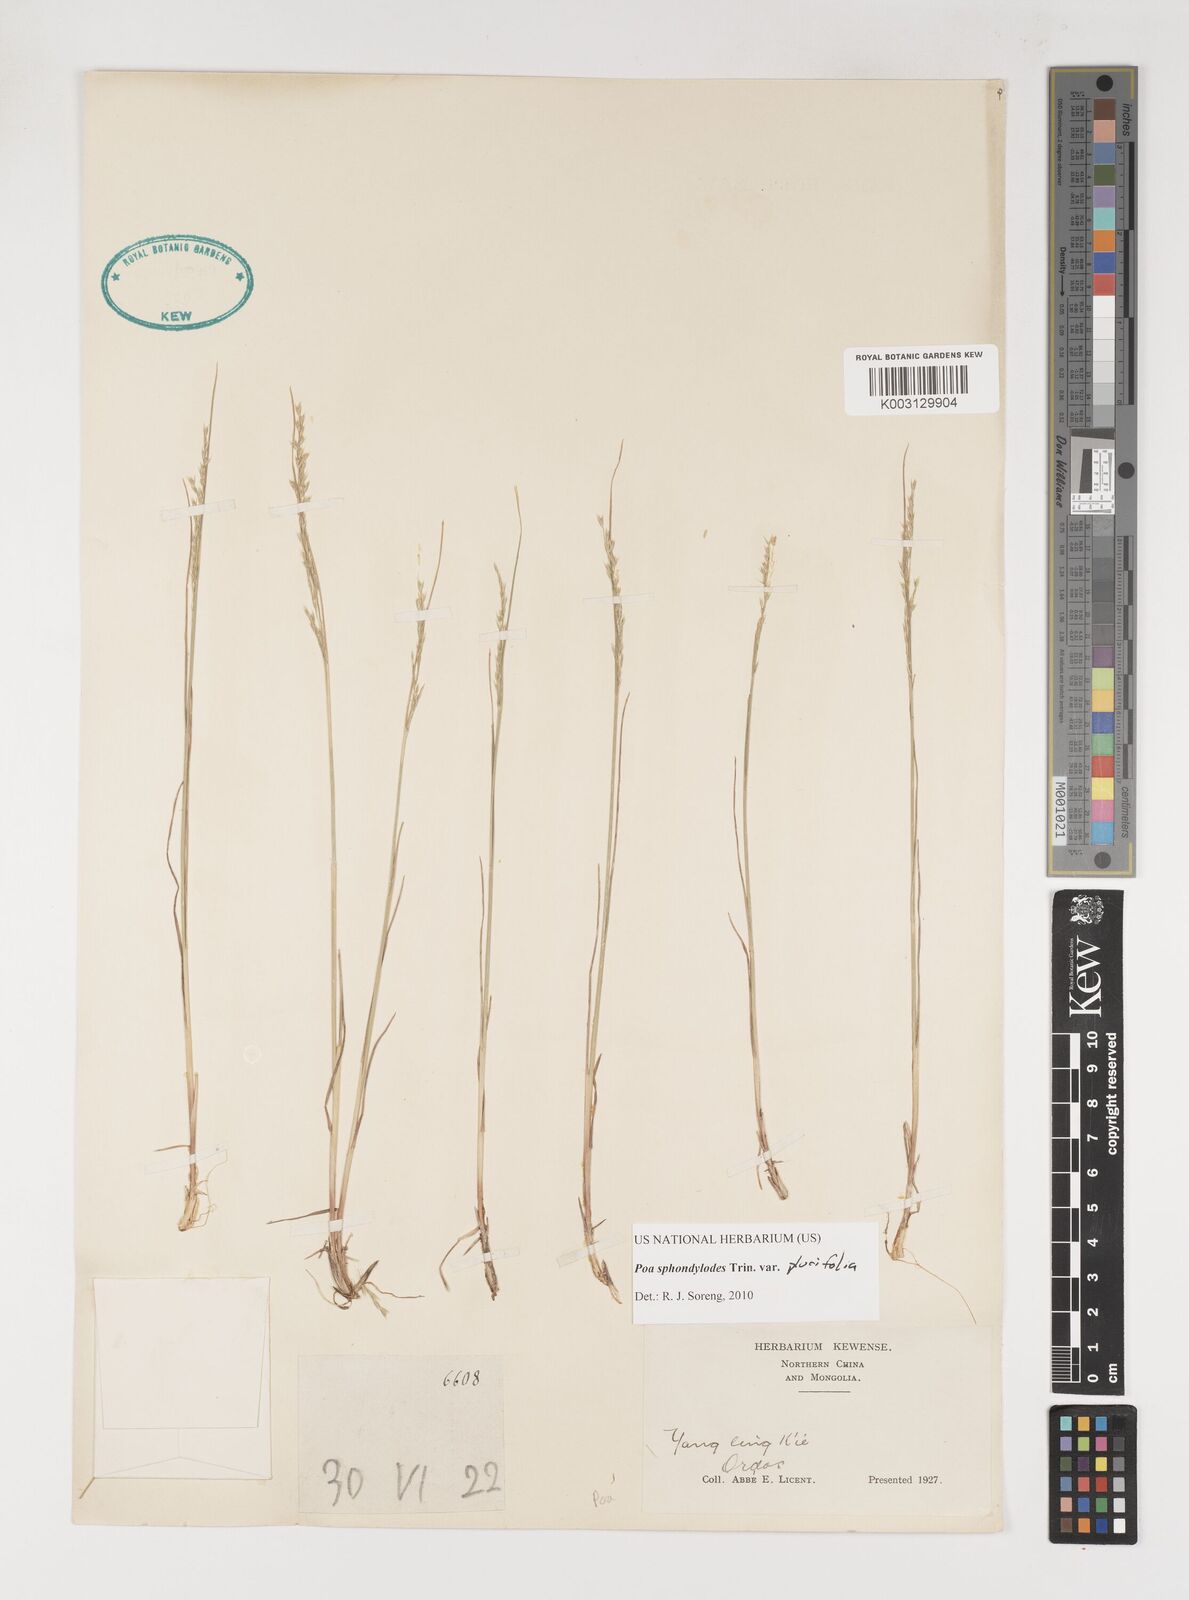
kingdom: Plantae
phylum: Tracheophyta
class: Liliopsida
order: Poales
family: Poaceae
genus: Poa
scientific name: Poa sphondylodes
